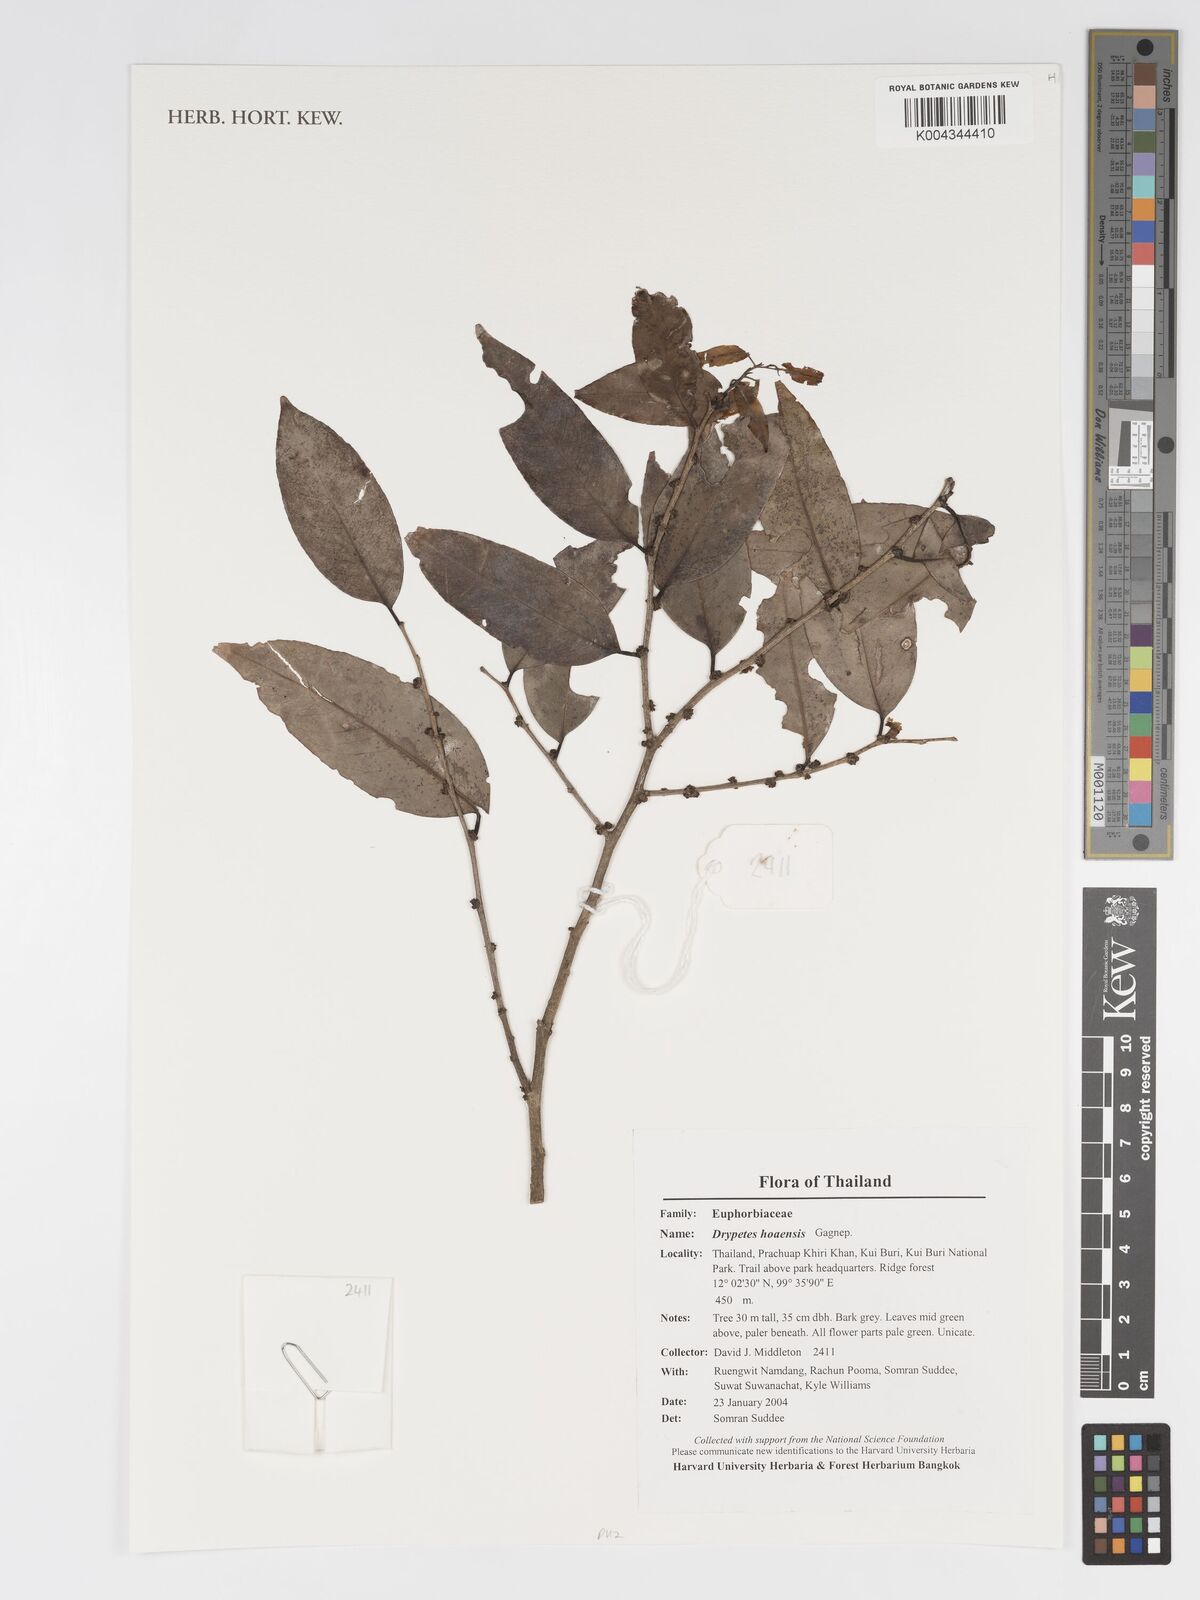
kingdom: Plantae
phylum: Tracheophyta
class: Magnoliopsida
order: Malpighiales
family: Putranjivaceae
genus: Drypetes
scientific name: Drypetes hoaensis
